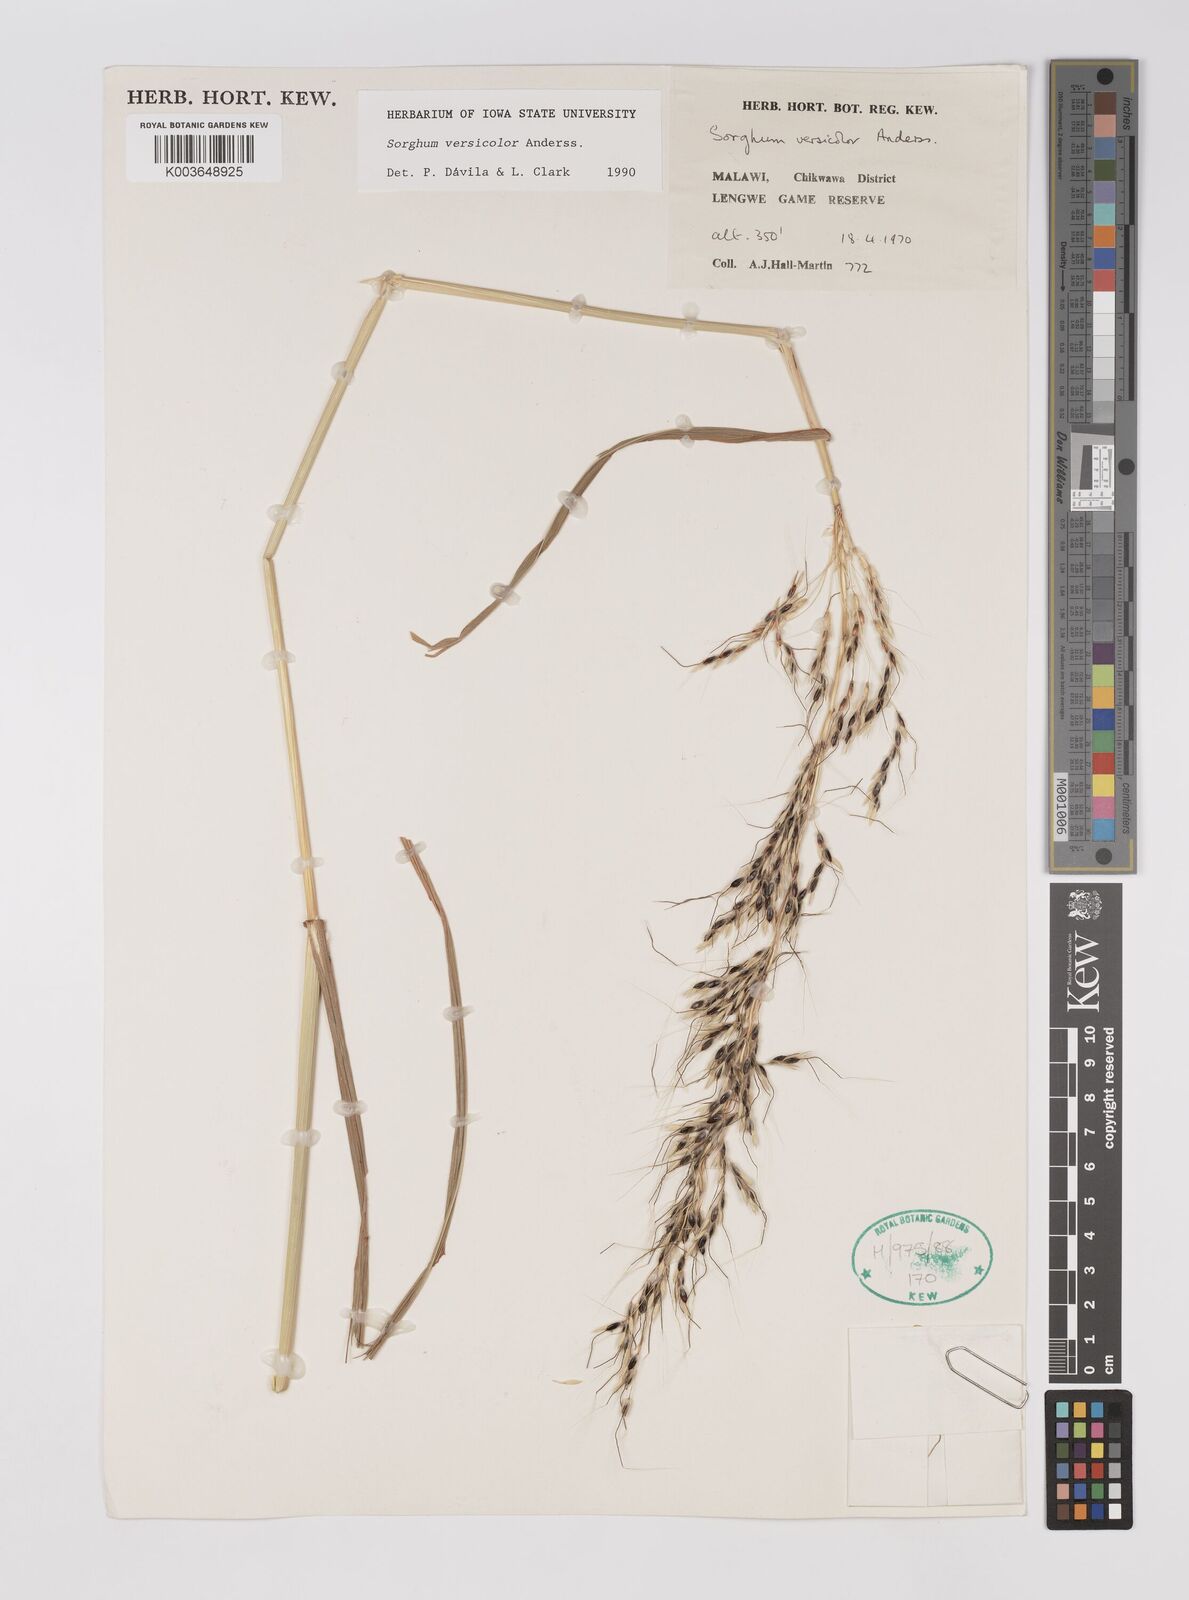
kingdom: Plantae
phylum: Tracheophyta
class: Liliopsida
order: Poales
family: Poaceae
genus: Sarga
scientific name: Sarga versicolor
